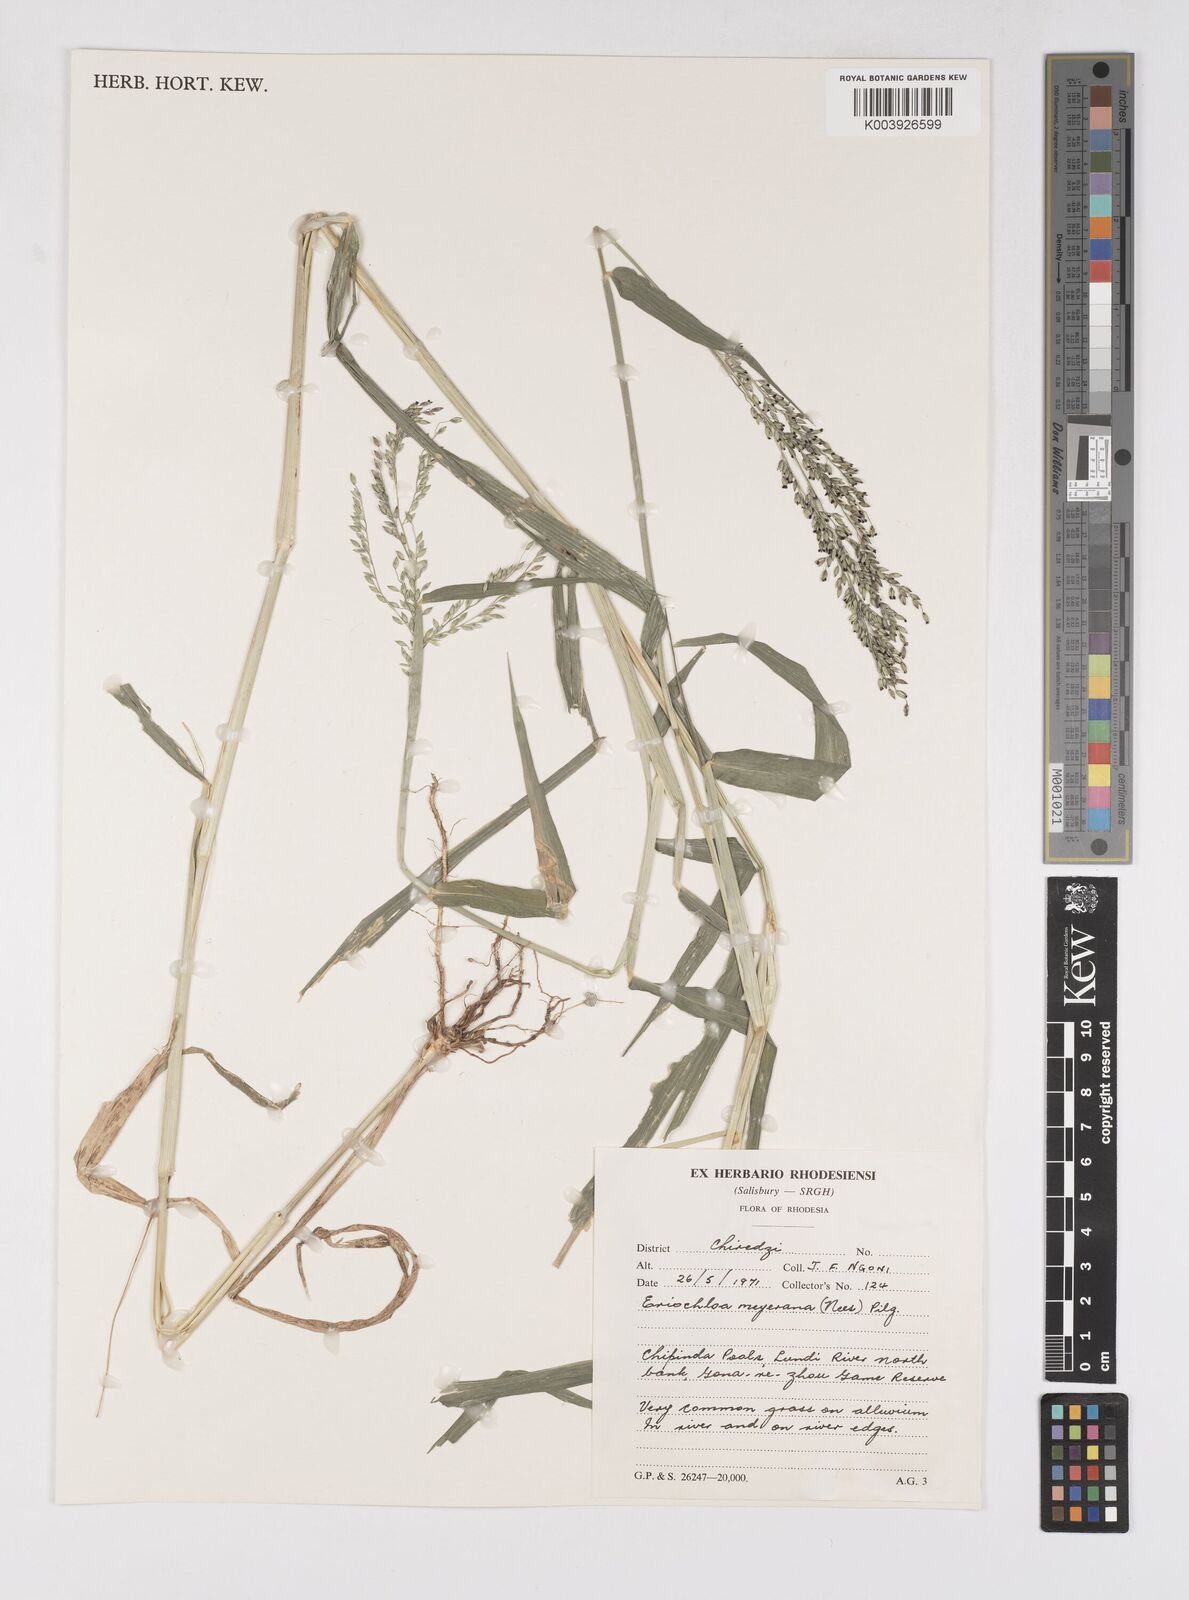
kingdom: Plantae
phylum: Tracheophyta
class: Liliopsida
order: Poales
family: Poaceae
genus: Eriochloa
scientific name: Eriochloa meyeriana
